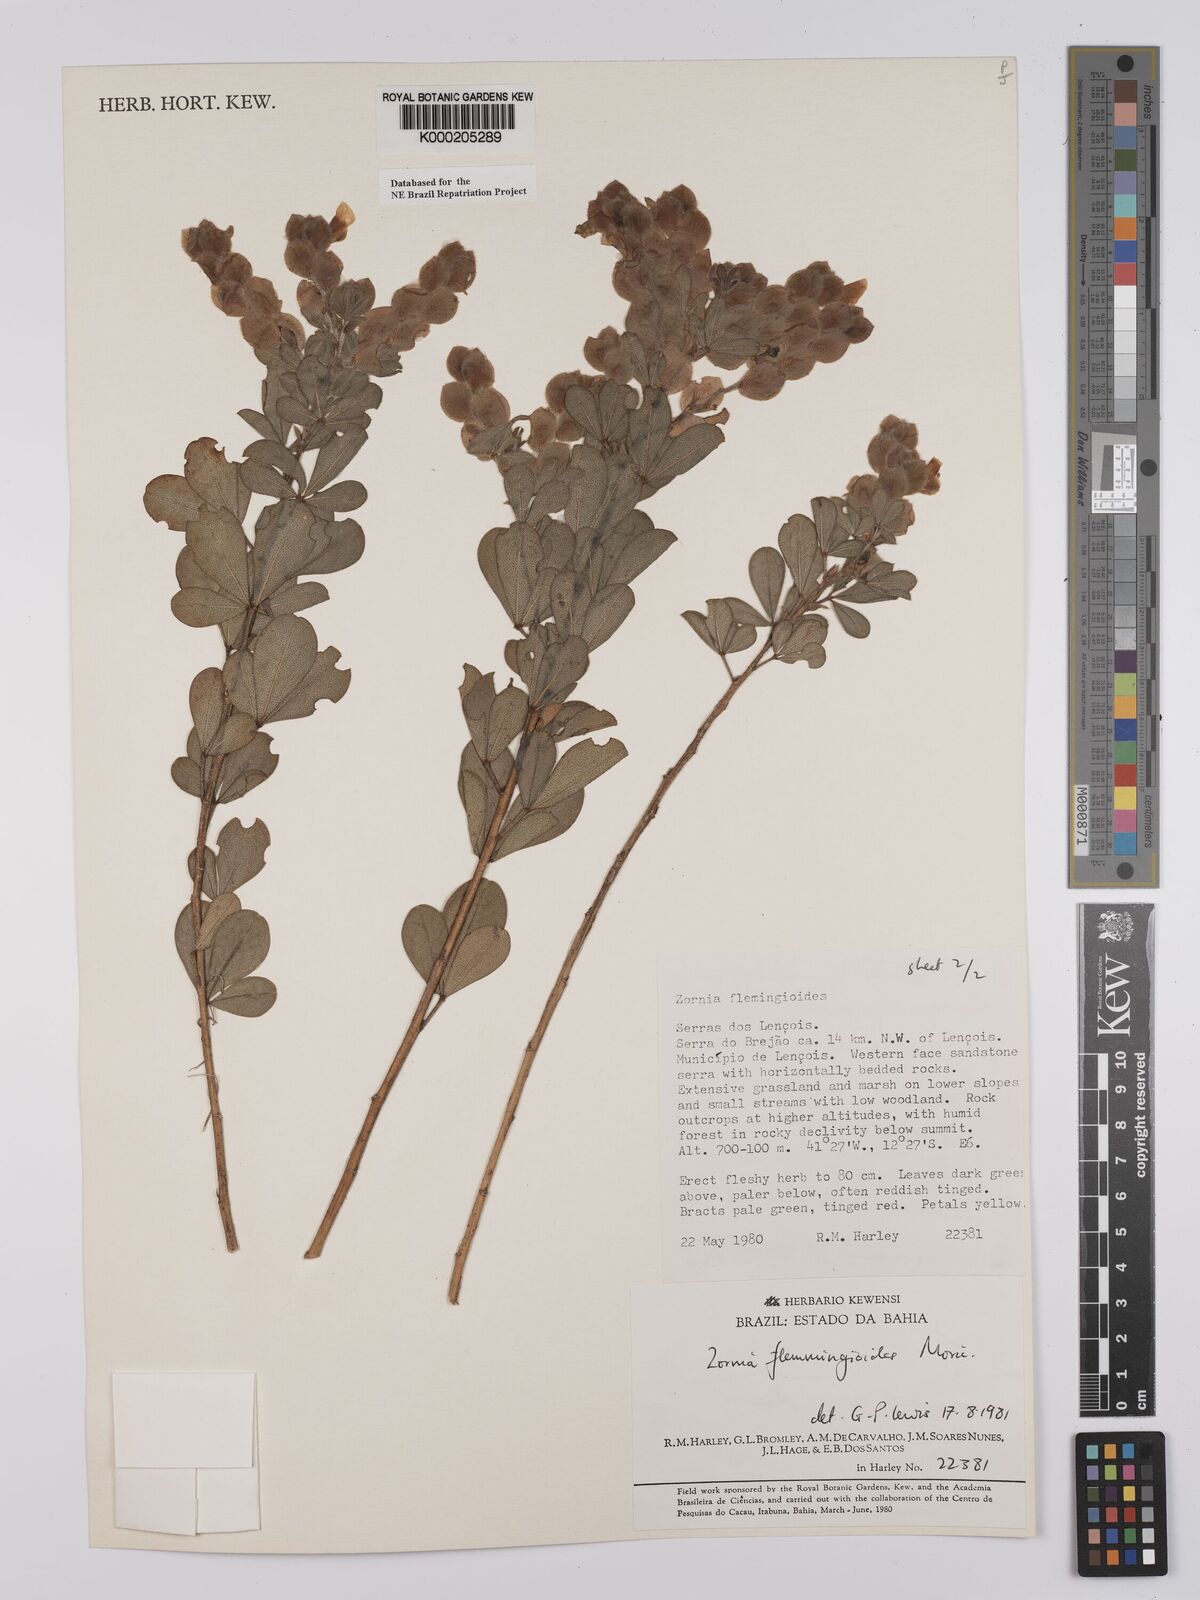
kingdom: Plantae
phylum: Tracheophyta
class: Magnoliopsida
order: Fabales
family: Fabaceae
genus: Zornia
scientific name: Zornia flemmingioides
